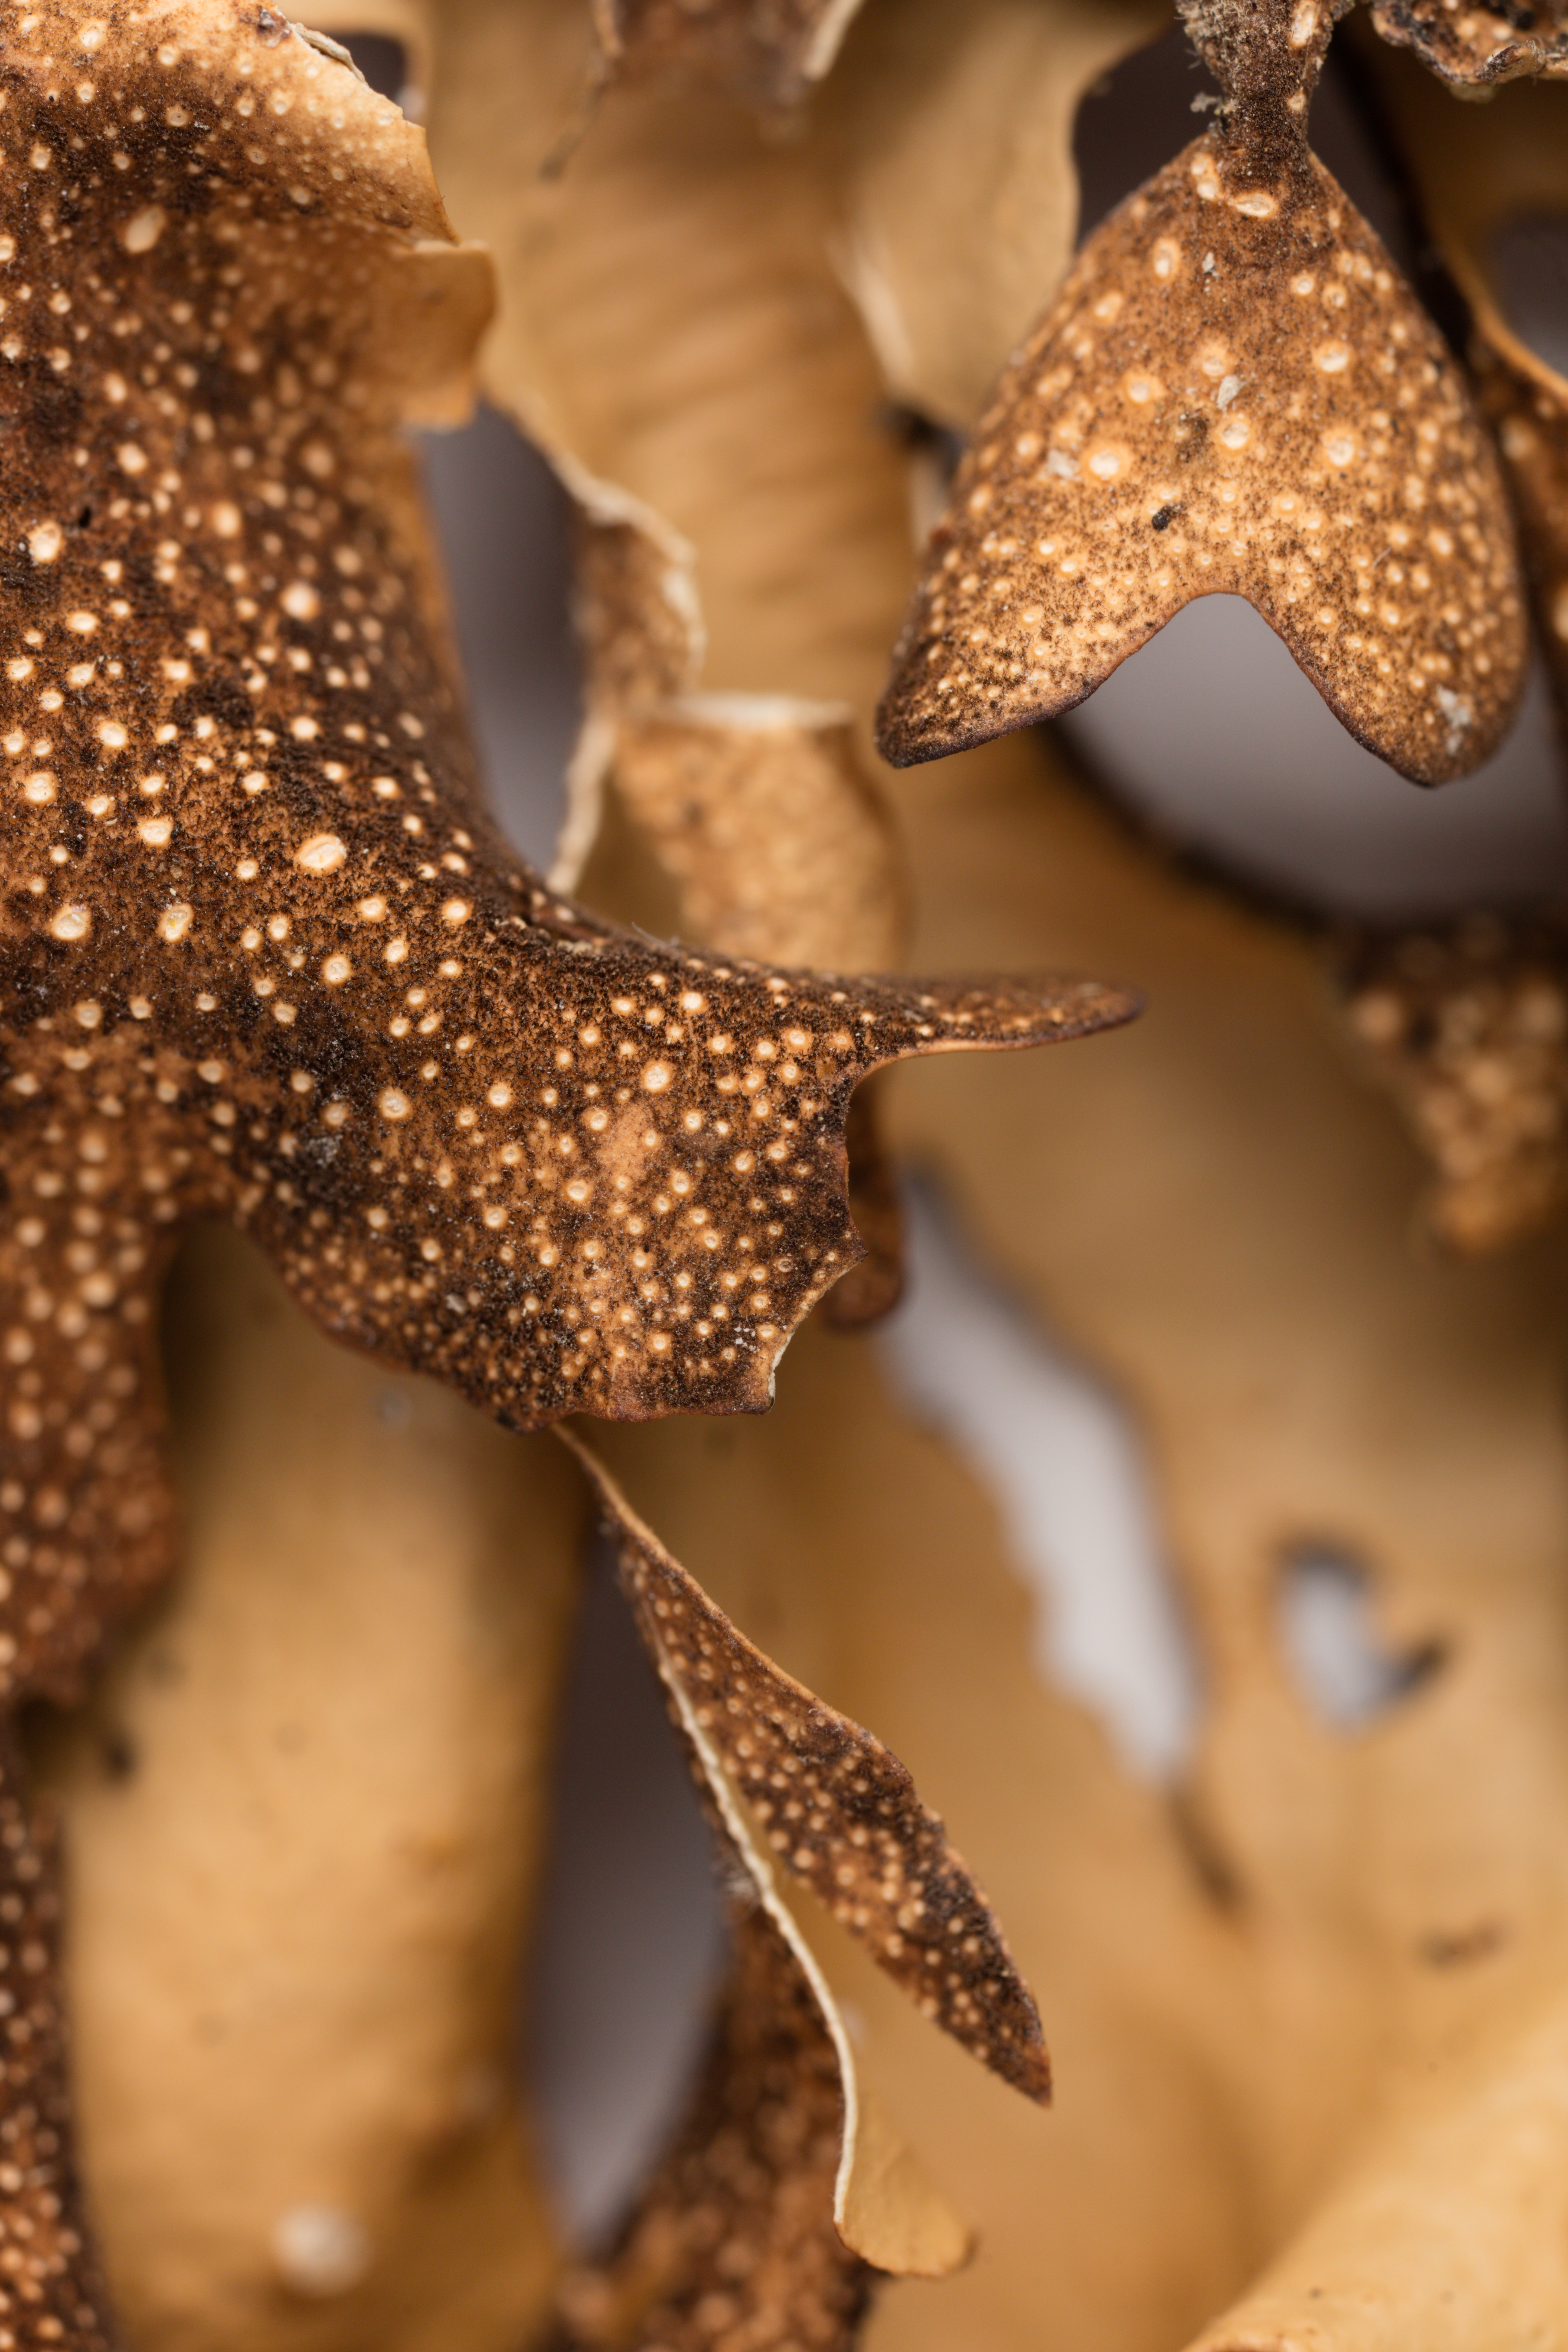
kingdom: Fungi
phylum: Ascomycota
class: Lecanoromycetes
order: Peltigerales
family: Lobariaceae
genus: Sticta
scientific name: Sticta latifrons
